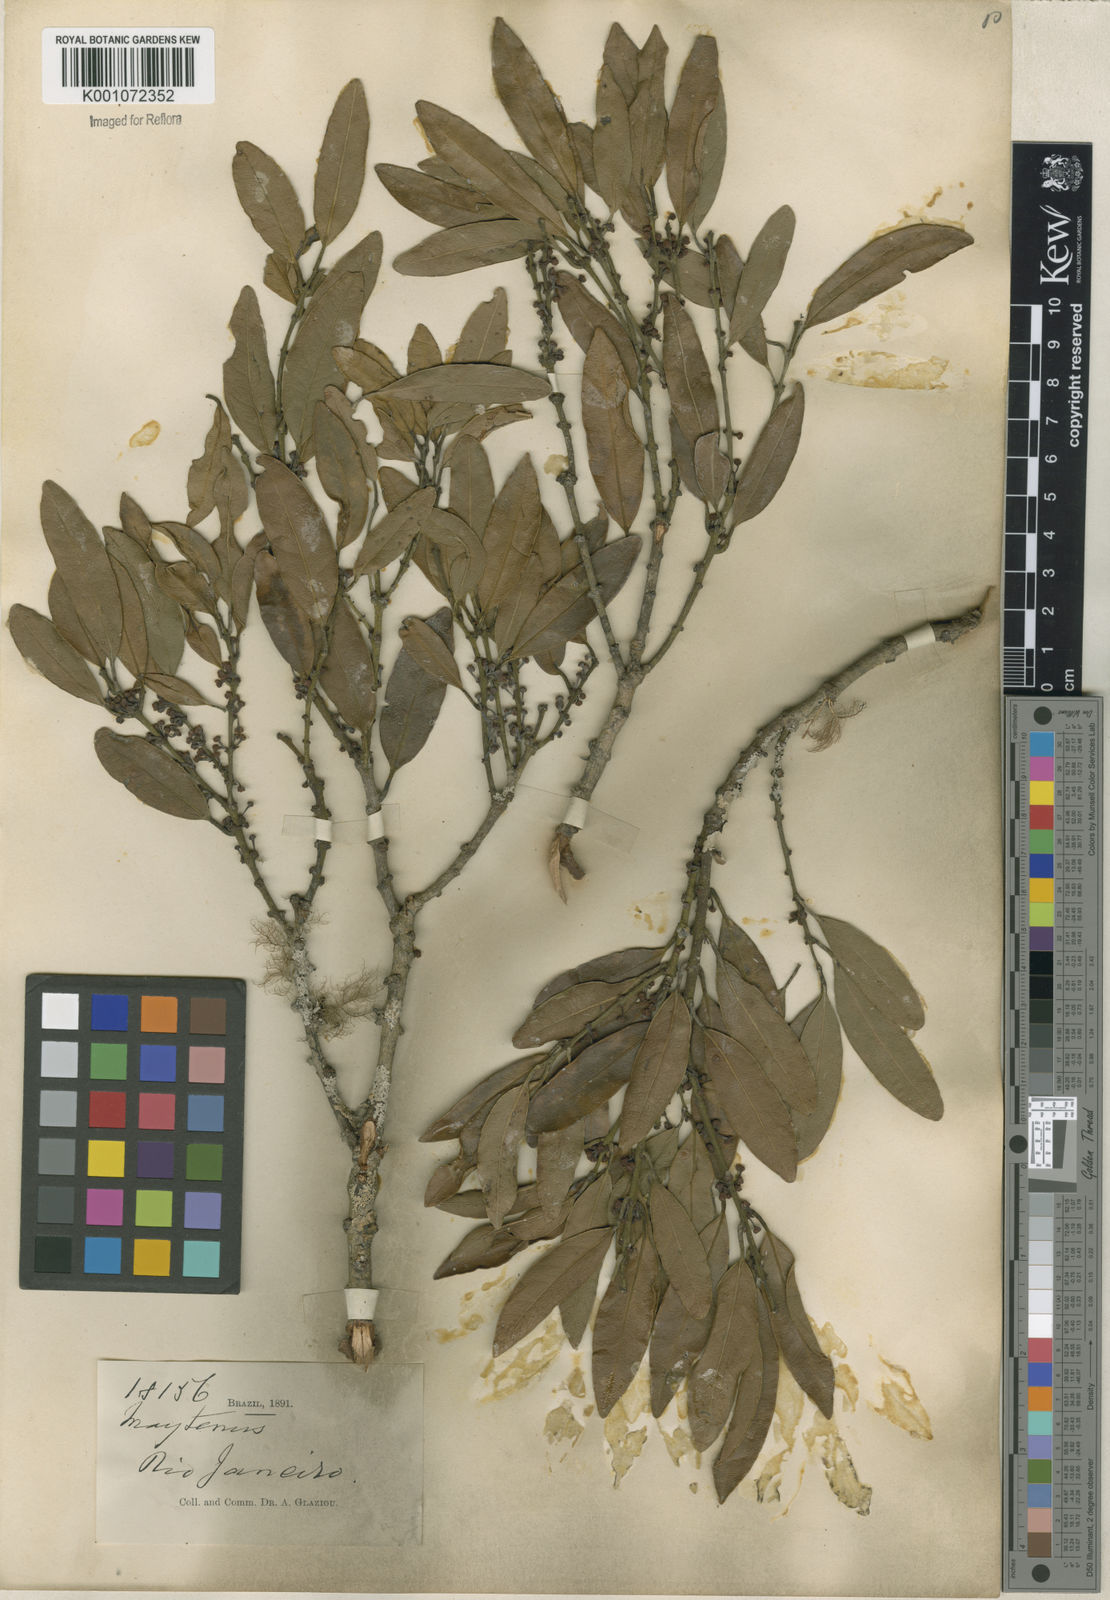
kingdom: Plantae
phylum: Tracheophyta
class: Magnoliopsida
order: Celastrales
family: Celastraceae
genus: Maytenus
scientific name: Maytenus
